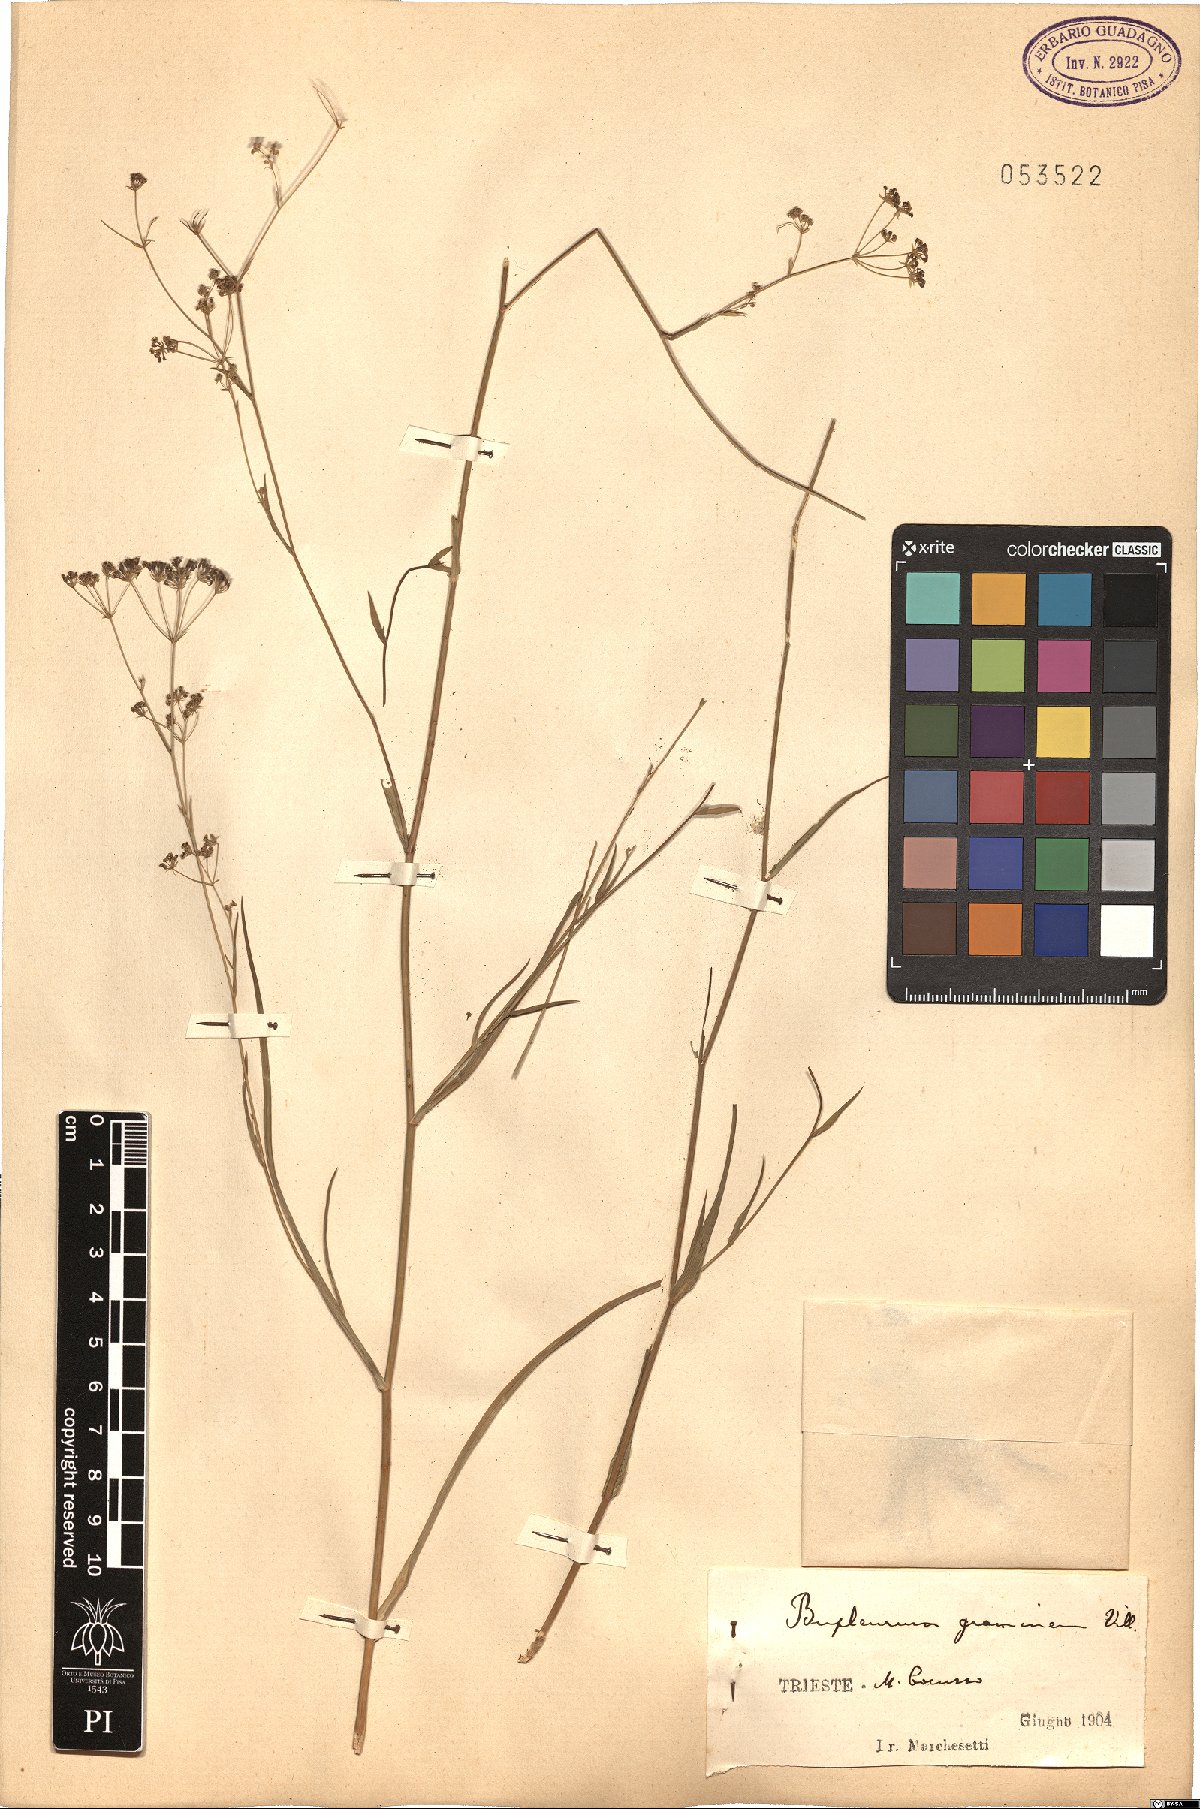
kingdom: Plantae
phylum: Tracheophyta
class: Magnoliopsida
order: Apiales
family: Apiaceae
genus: Bupleurum
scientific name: Bupleurum ranunculoides
